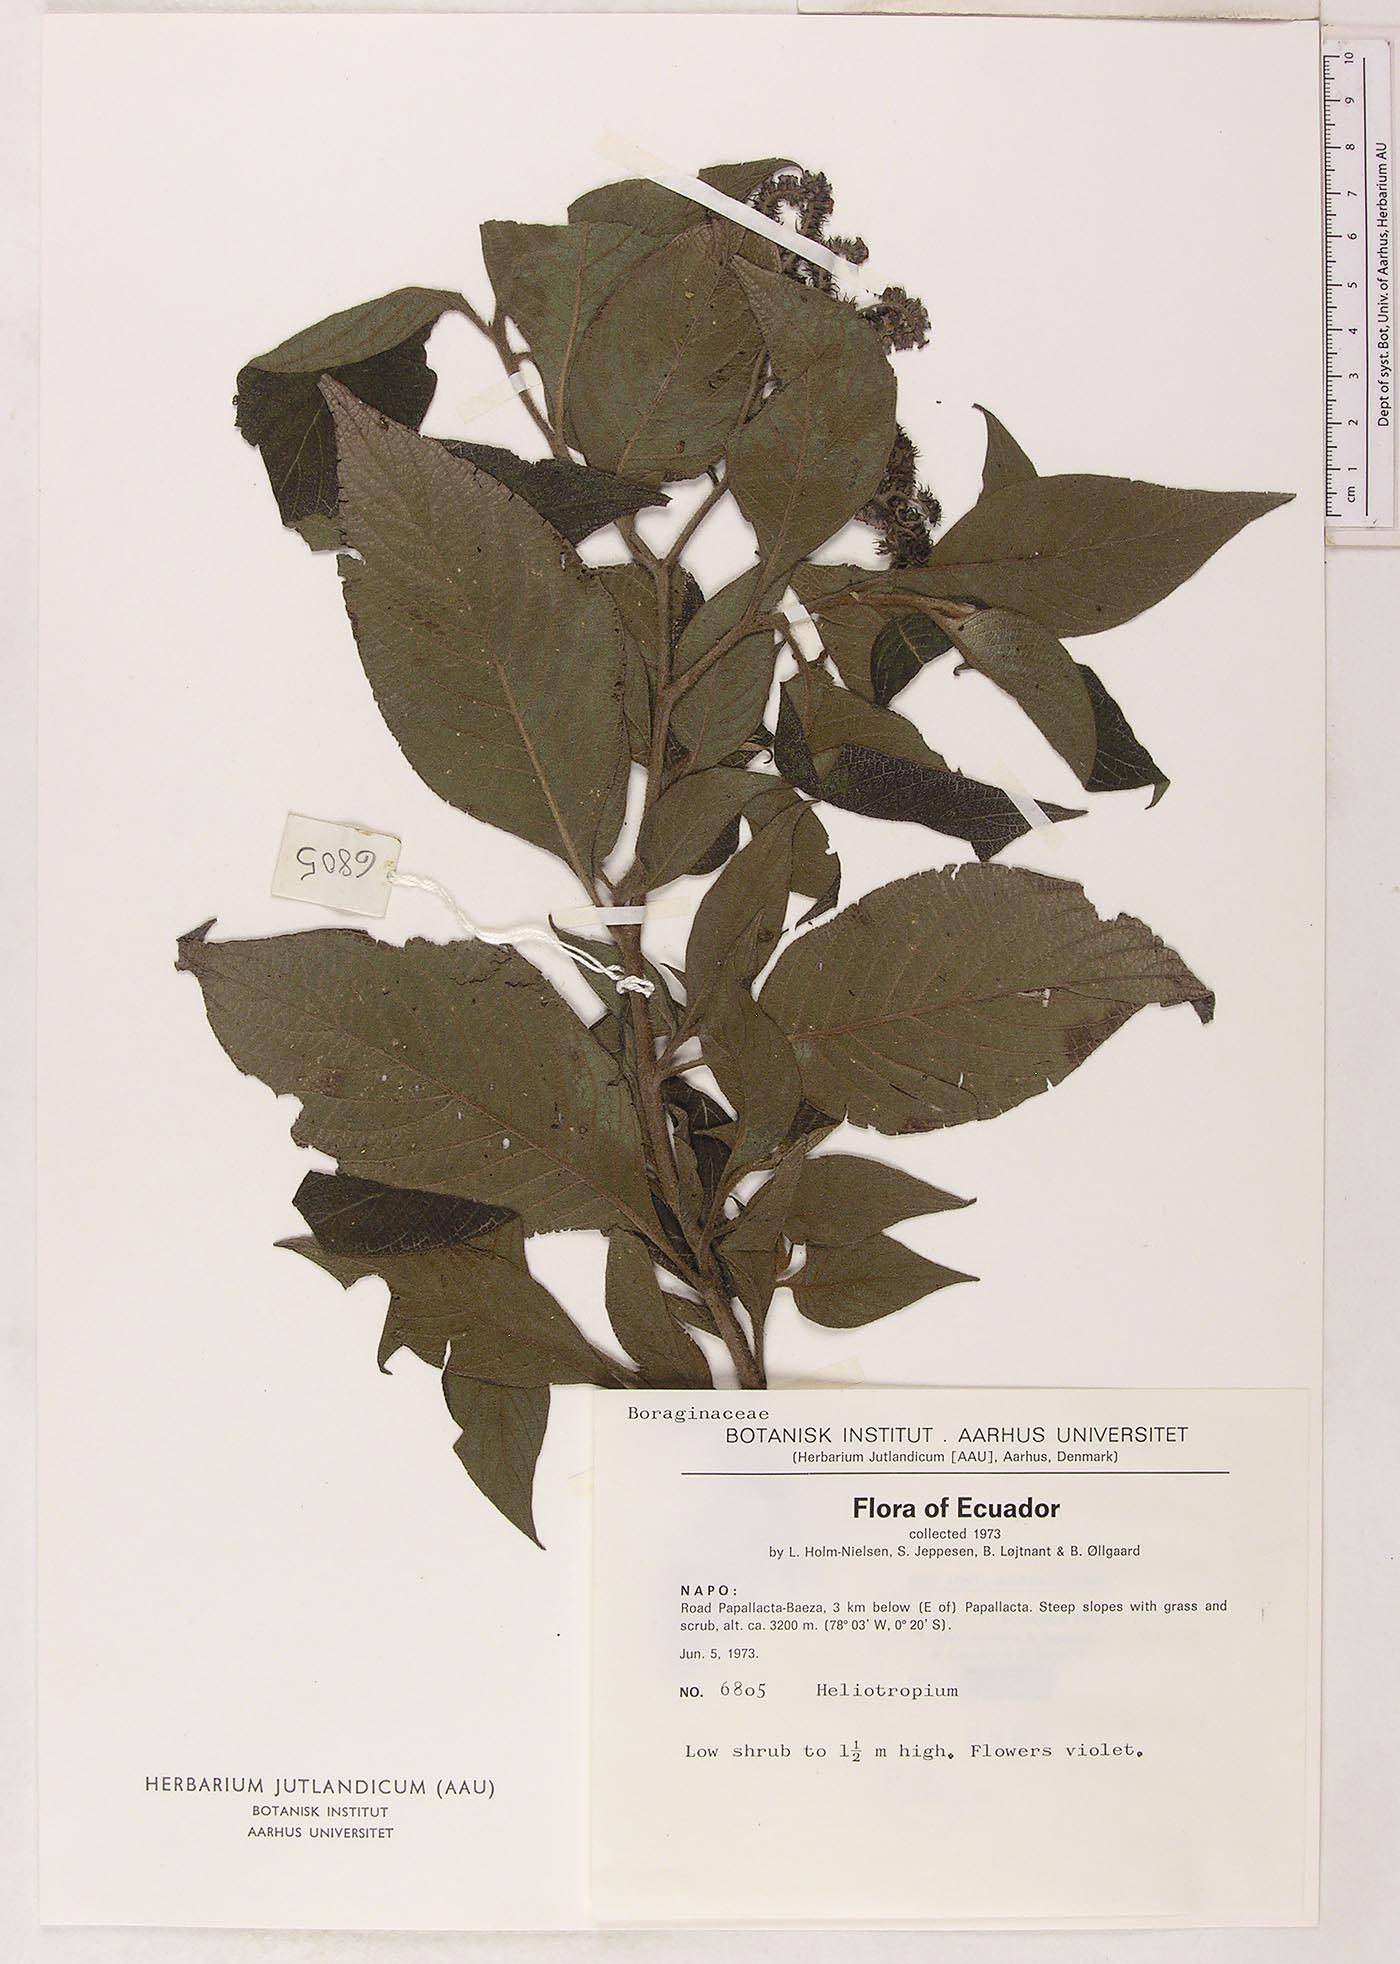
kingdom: Plantae
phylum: Tracheophyta
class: Magnoliopsida
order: Boraginales
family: Heliotropiaceae
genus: Heliotropium
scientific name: Heliotropium
